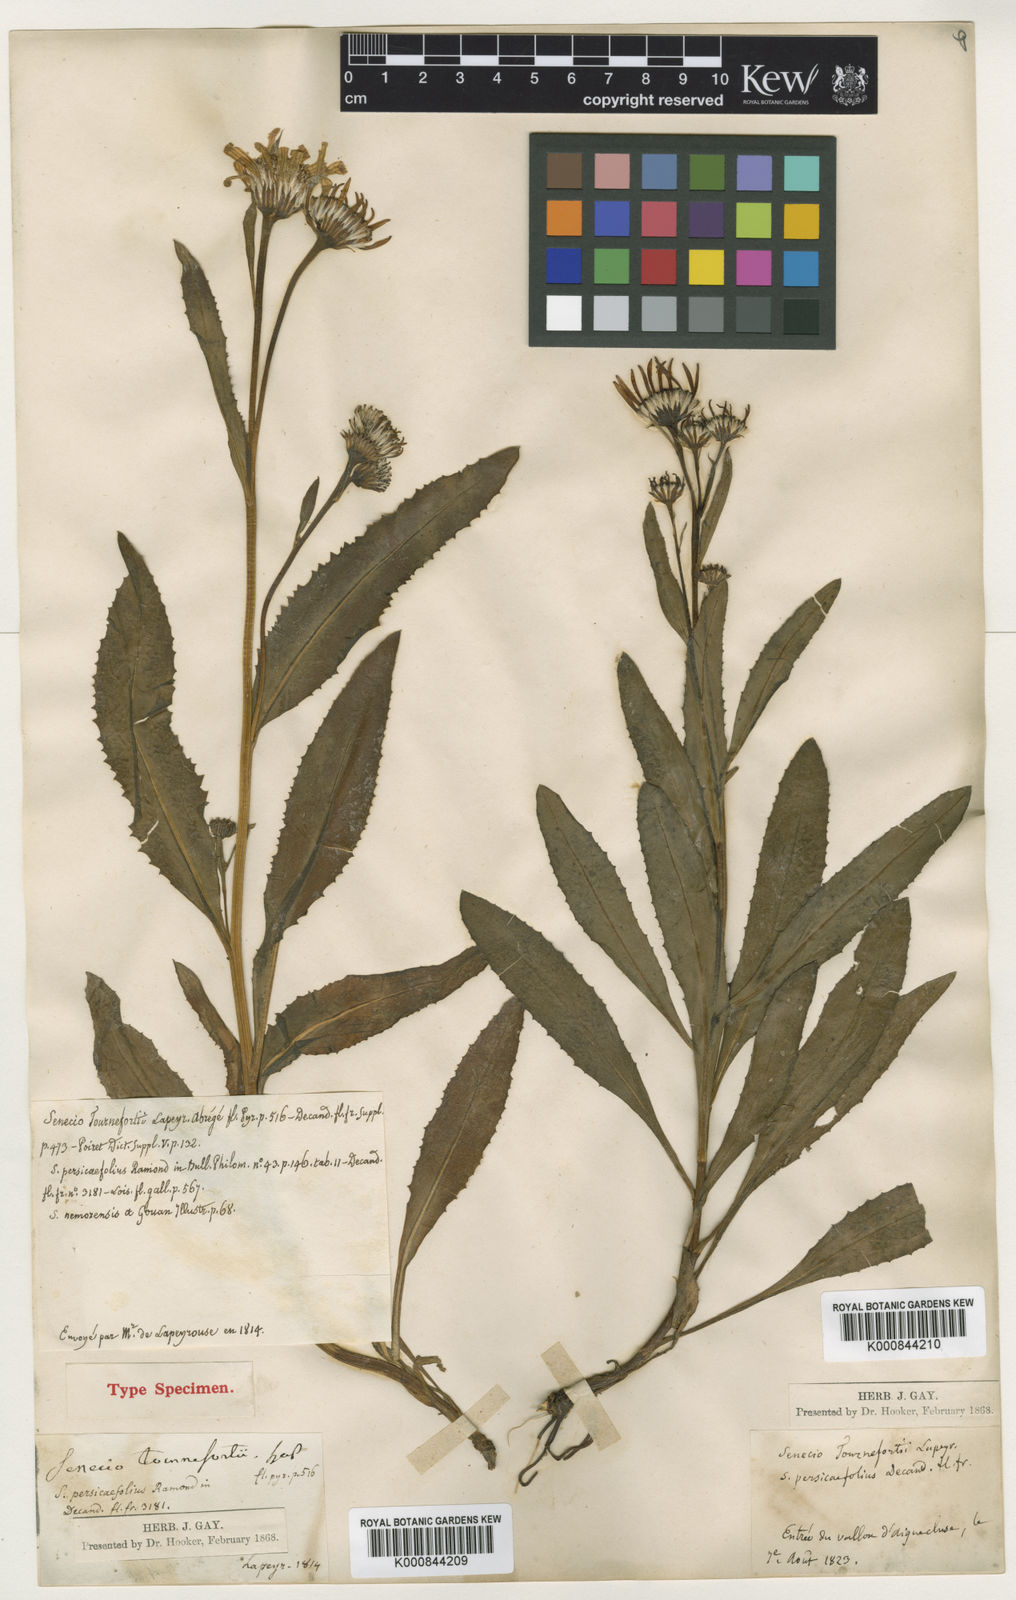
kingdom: Plantae
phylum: Tracheophyta
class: Magnoliopsida
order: Asterales
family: Asteraceae
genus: Tephroseris
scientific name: Tephroseris helenitis
